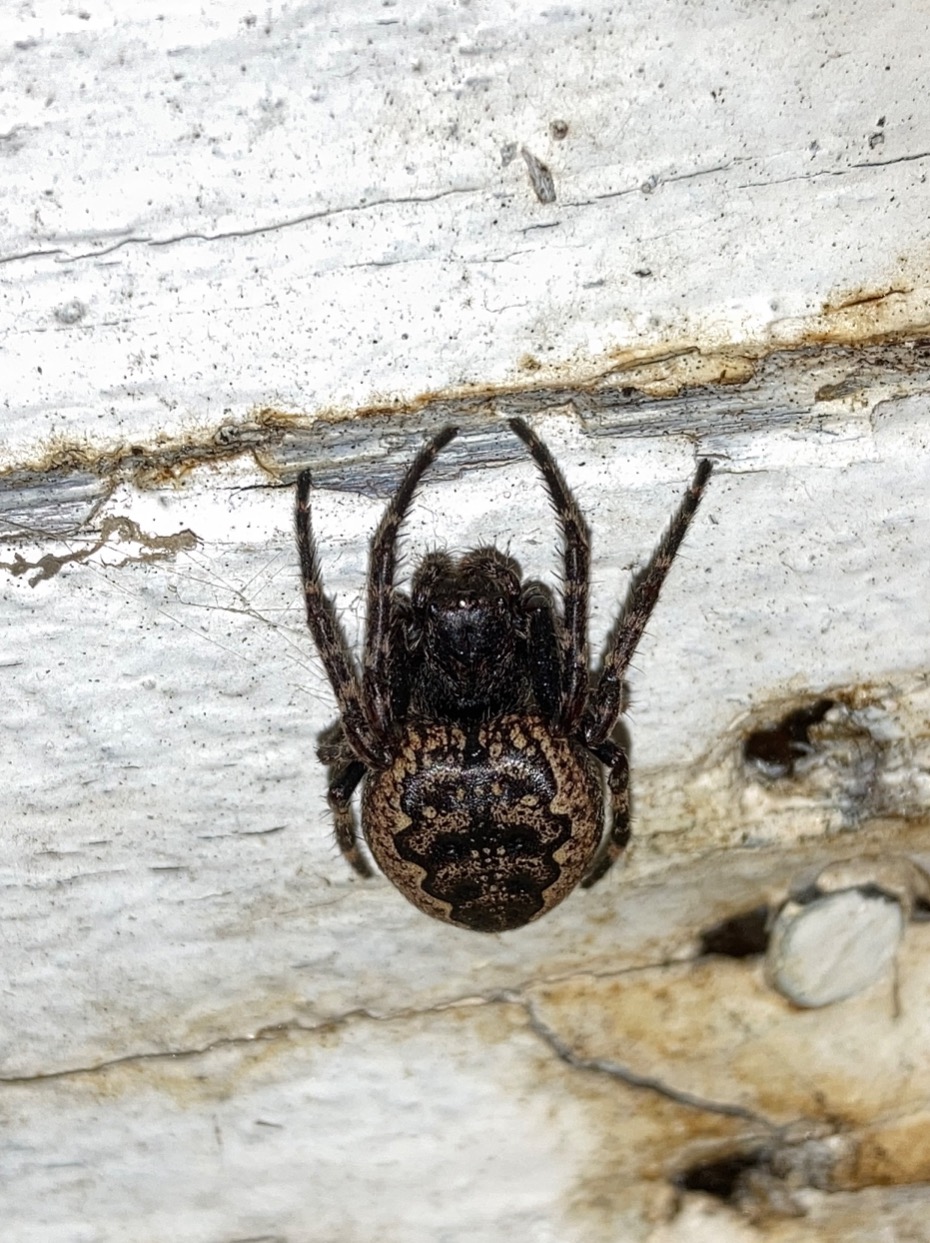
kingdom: Animalia
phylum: Arthropoda
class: Arachnida
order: Araneae
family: Araneidae
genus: Nuctenea
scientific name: Nuctenea umbratica
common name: Flad hjulspinder
